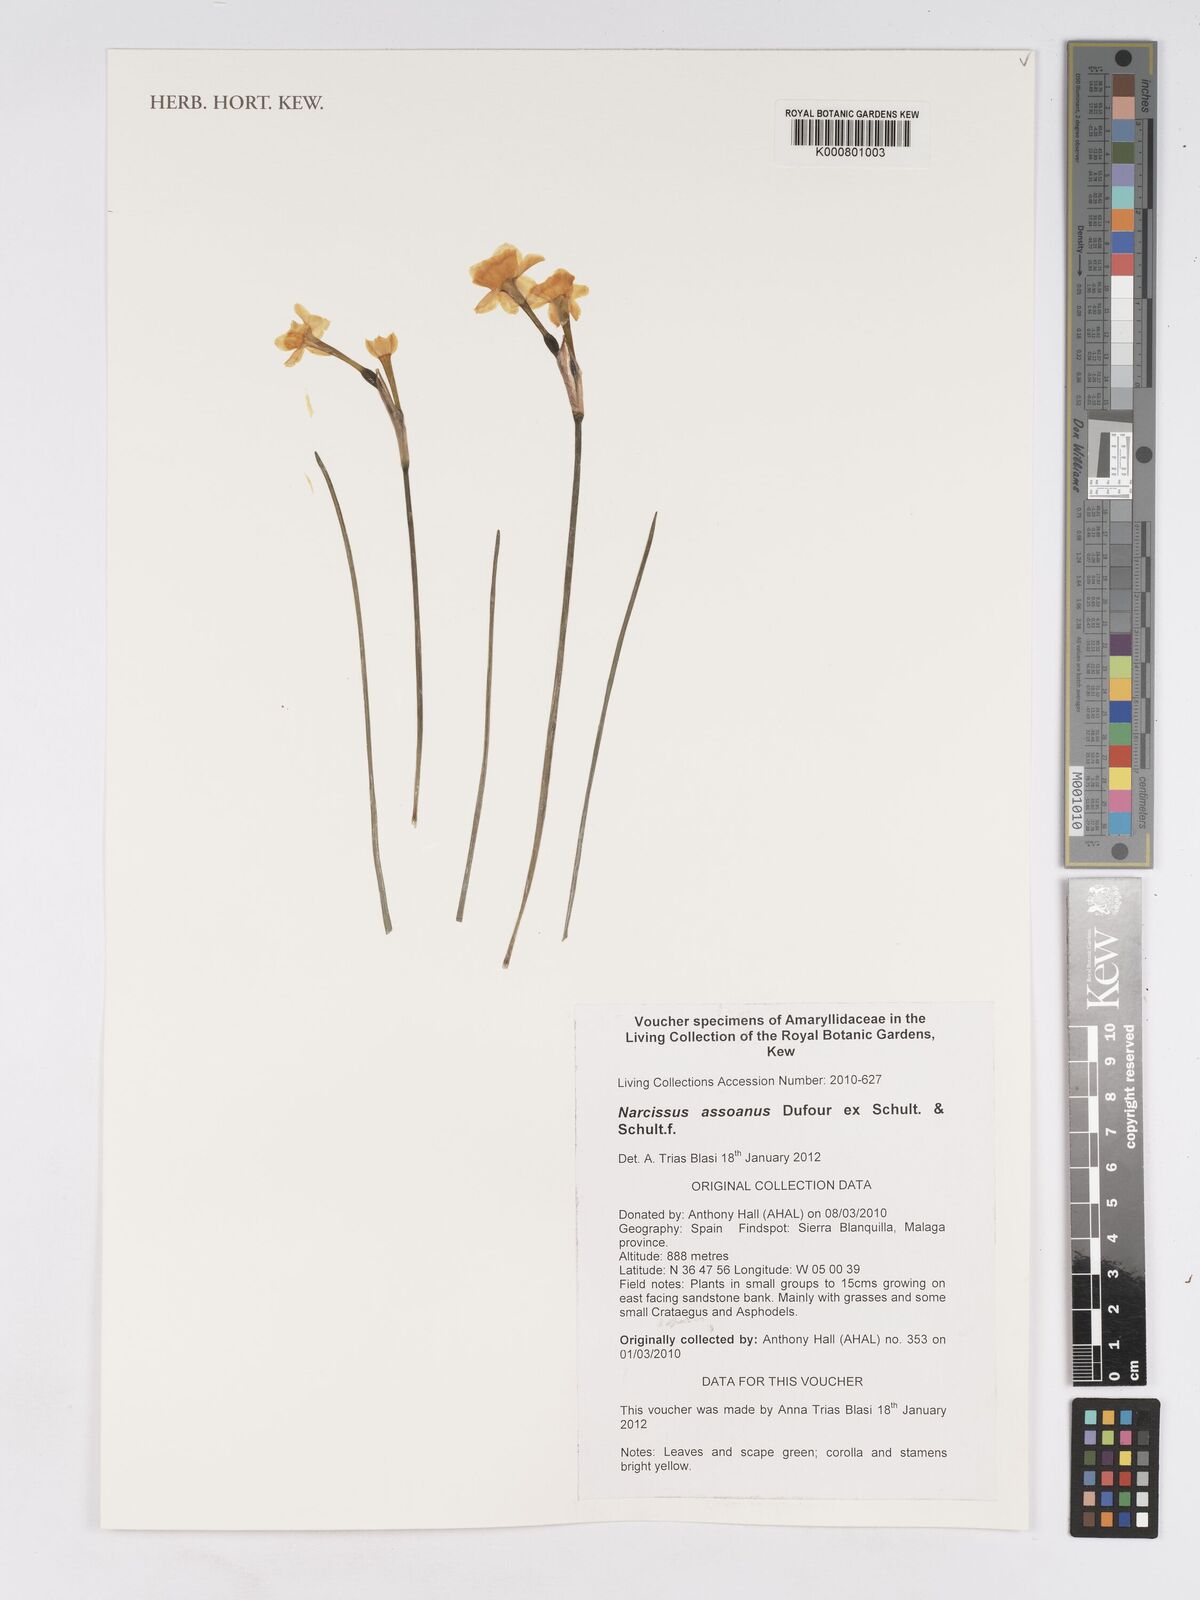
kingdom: Plantae
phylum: Tracheophyta
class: Liliopsida
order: Asparagales
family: Amaryllidaceae
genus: Narcissus
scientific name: Narcissus assoanus
